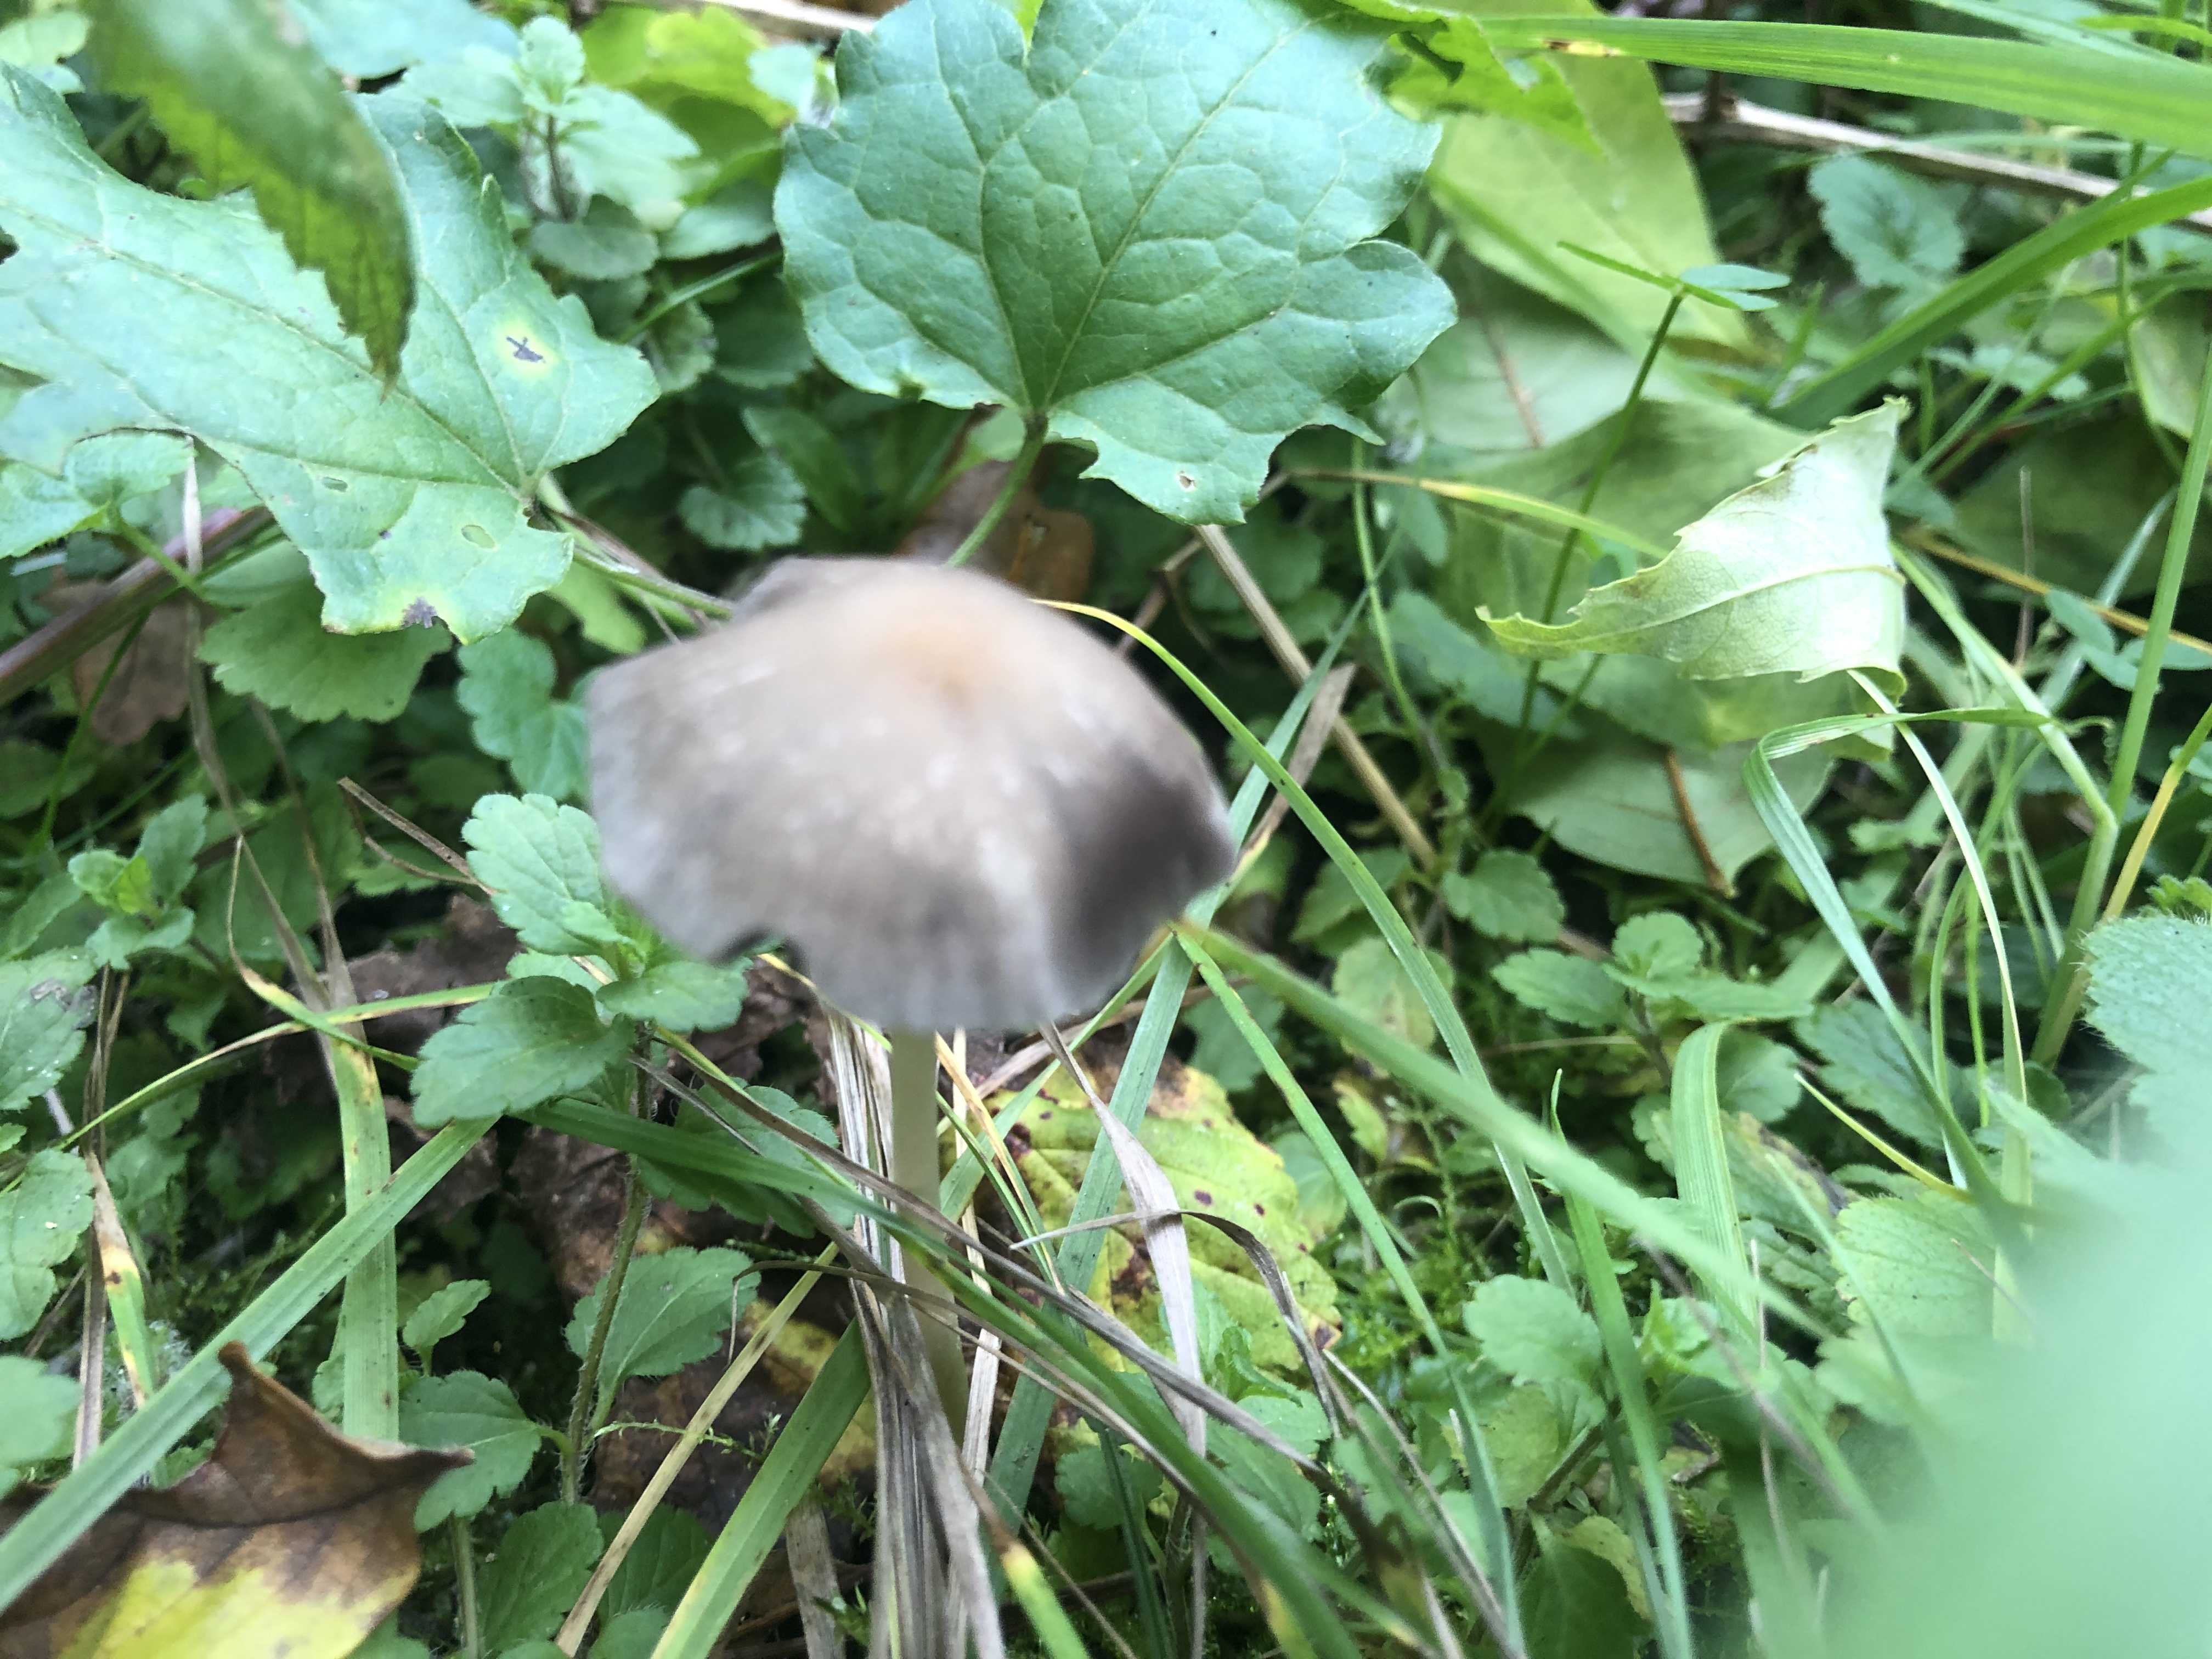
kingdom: Fungi
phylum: Basidiomycota
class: Agaricomycetes
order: Agaricales
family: Psathyrellaceae
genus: Psathyrella
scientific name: Psathyrella
